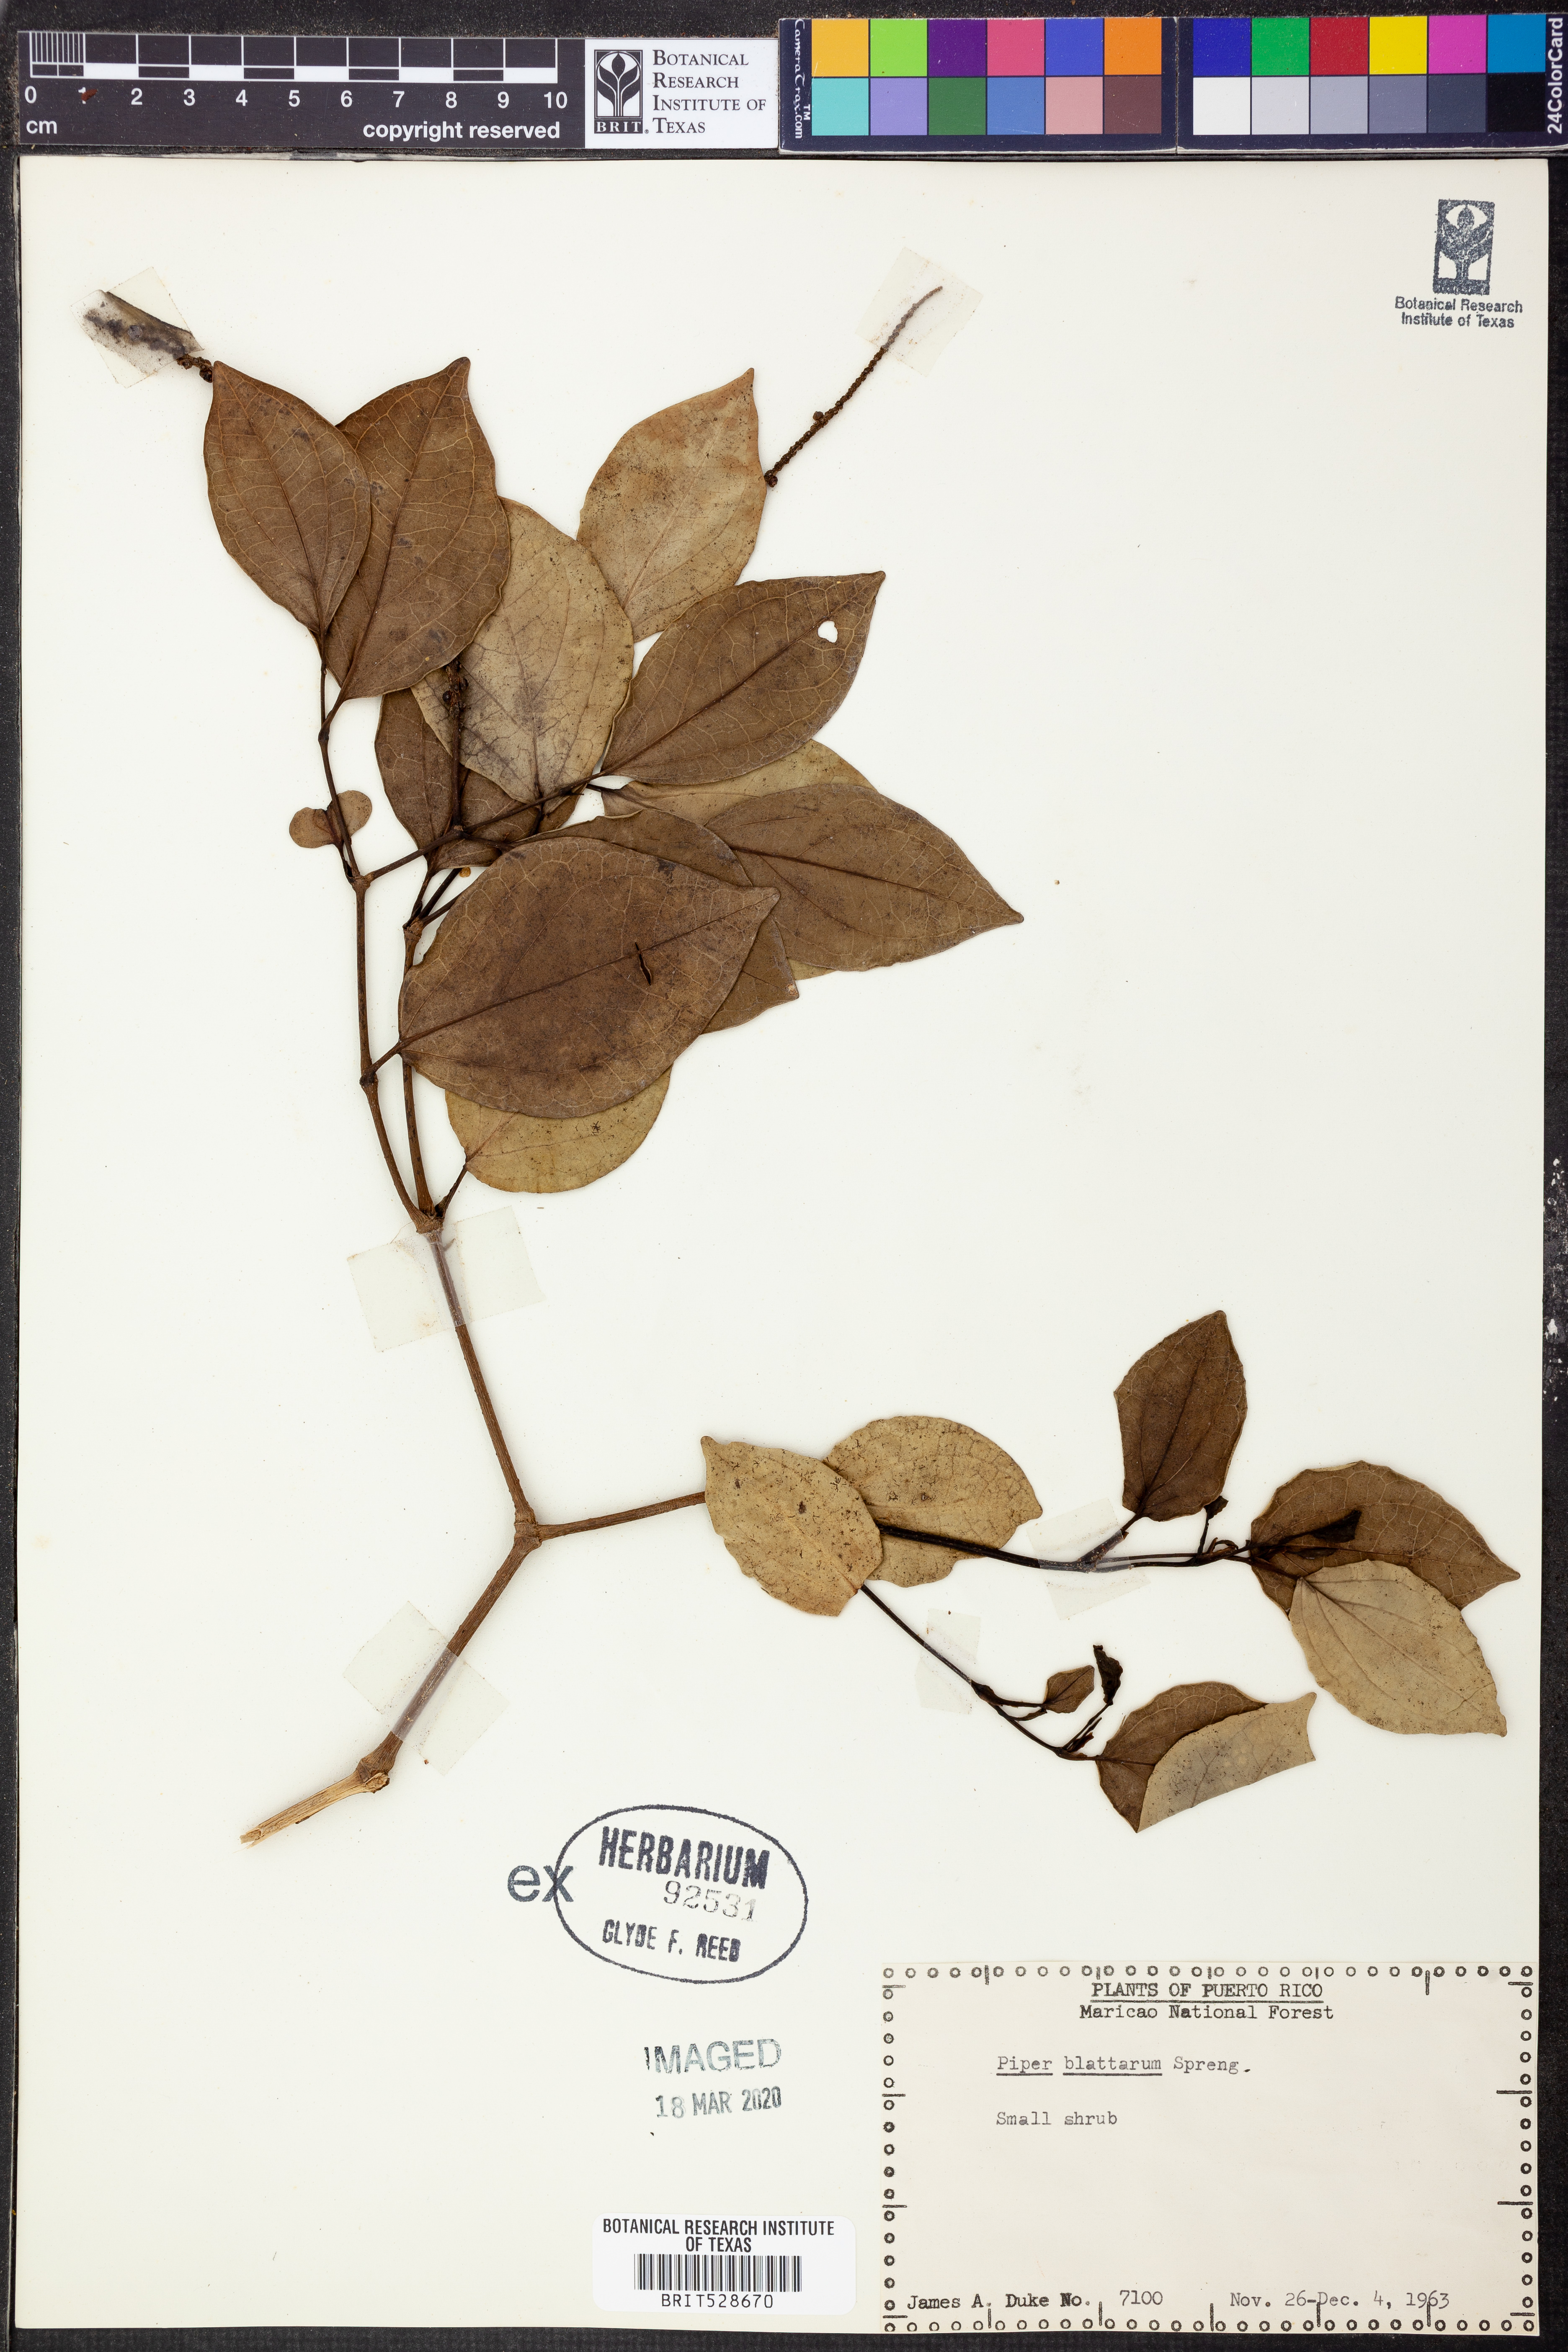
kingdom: Plantae
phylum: Tracheophyta
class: Magnoliopsida
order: Piperales
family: Piperaceae
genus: Piper
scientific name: Piper blattarum
